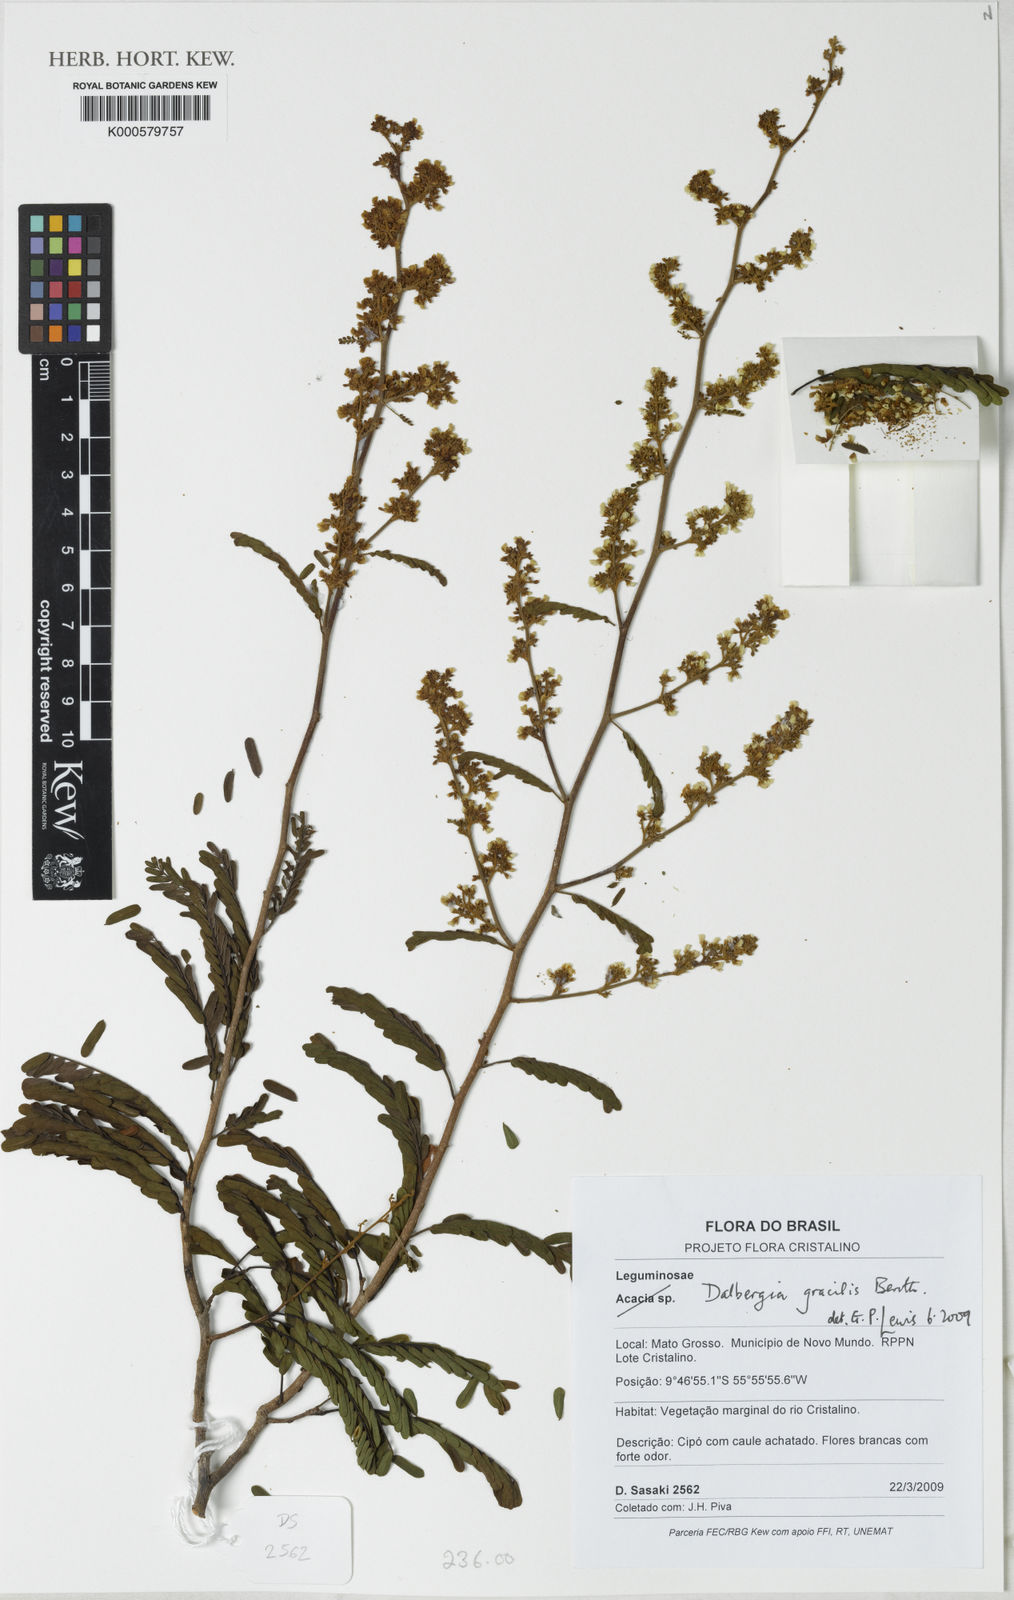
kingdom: Plantae
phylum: Tracheophyta
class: Magnoliopsida
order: Fabales
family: Fabaceae
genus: Dalbergia
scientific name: Dalbergia gracilis
